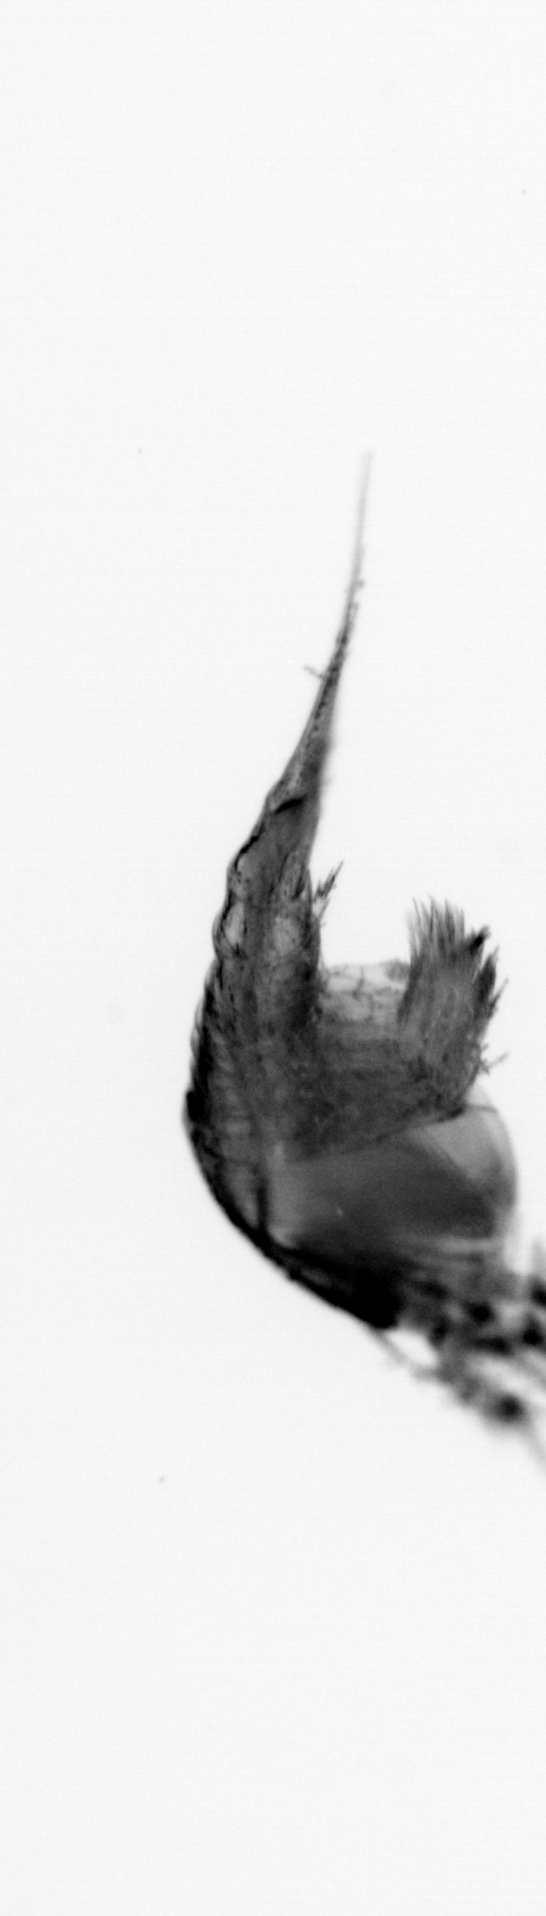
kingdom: Animalia
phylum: Chordata
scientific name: Chordata
